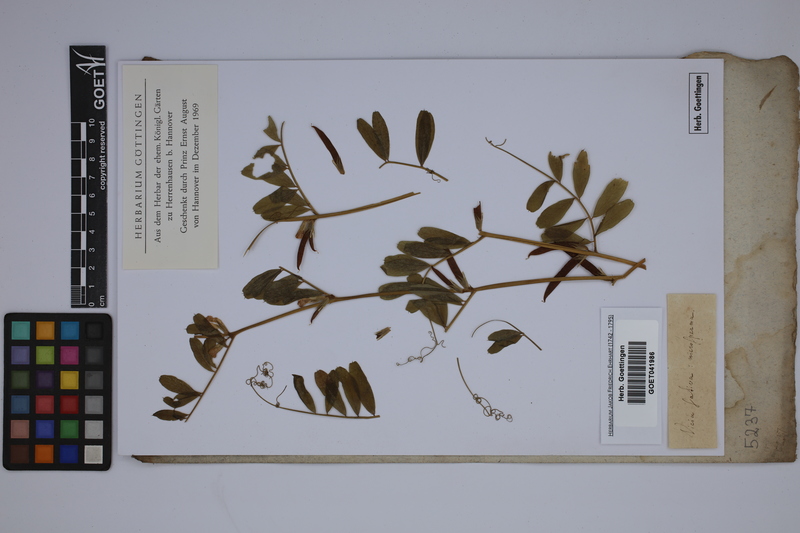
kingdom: Plantae
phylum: Tracheophyta
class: Magnoliopsida
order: Fabales
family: Fabaceae
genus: Vicia
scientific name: Vicia sativa
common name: Garden vetch
